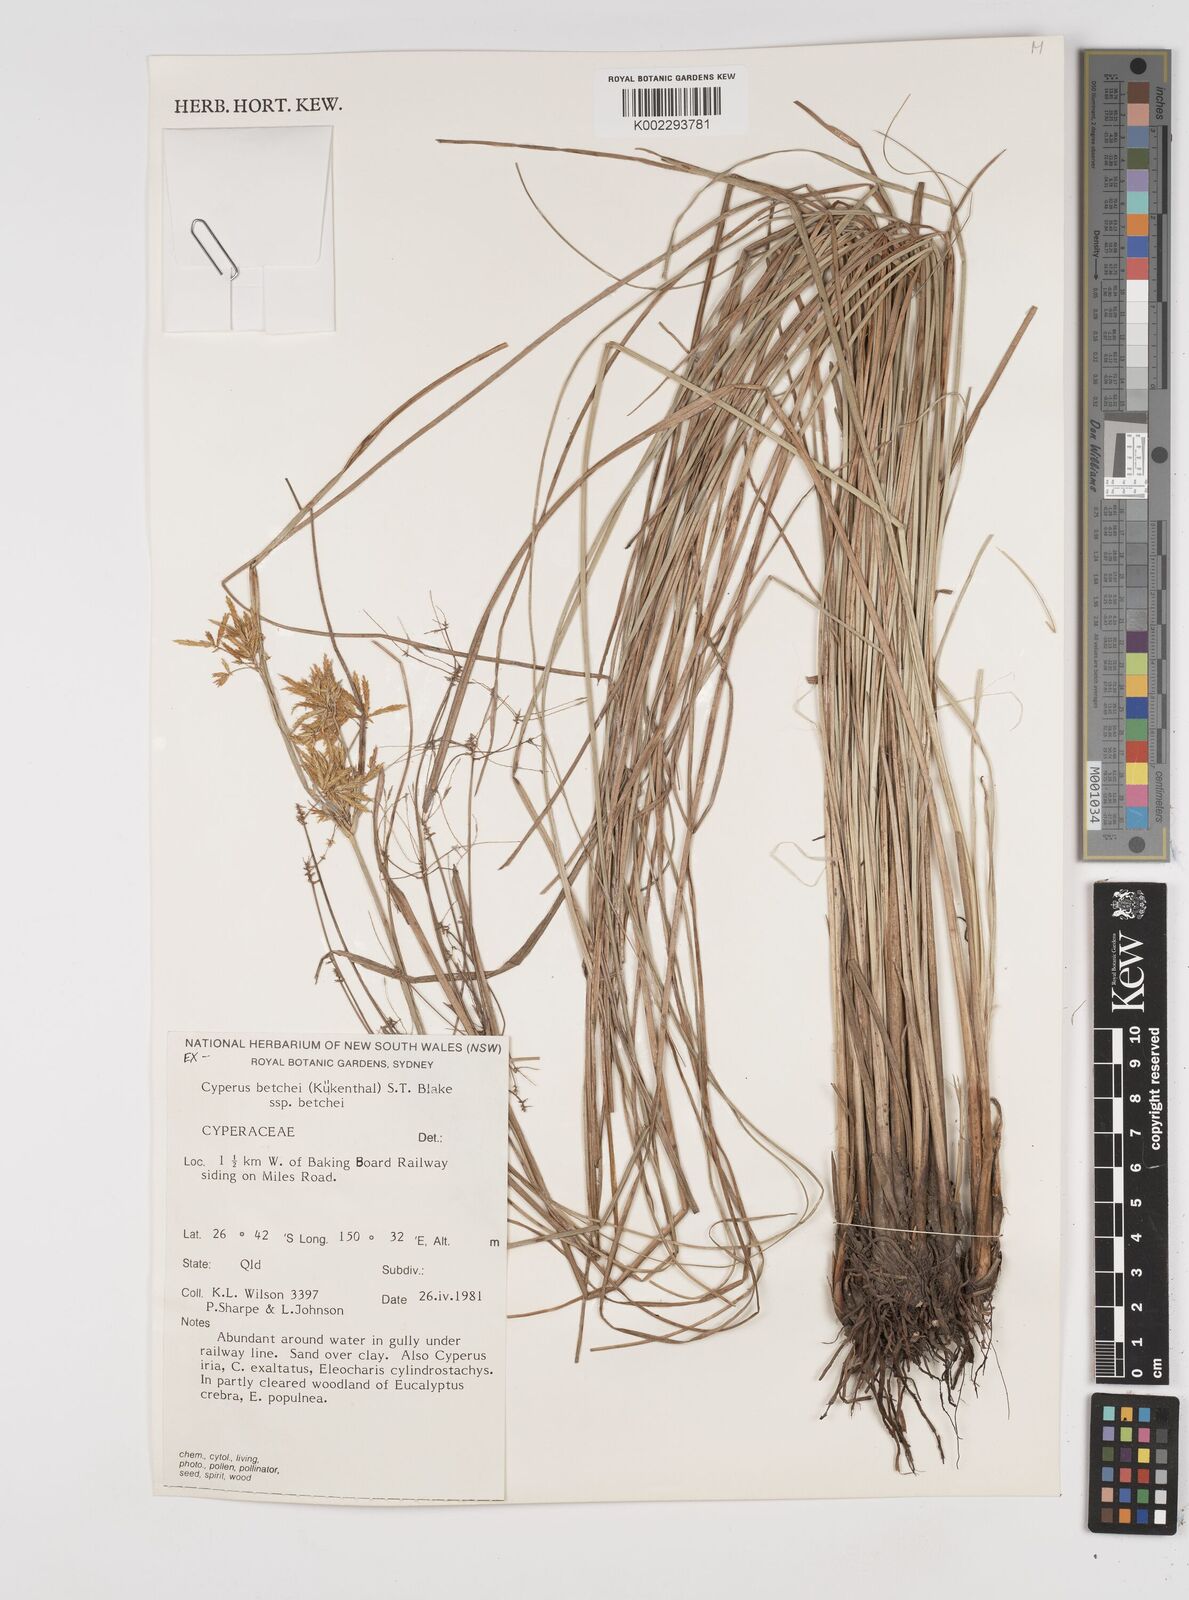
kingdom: Plantae
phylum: Tracheophyta
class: Liliopsida
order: Poales
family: Cyperaceae
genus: Cyperus
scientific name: Cyperus betchei
